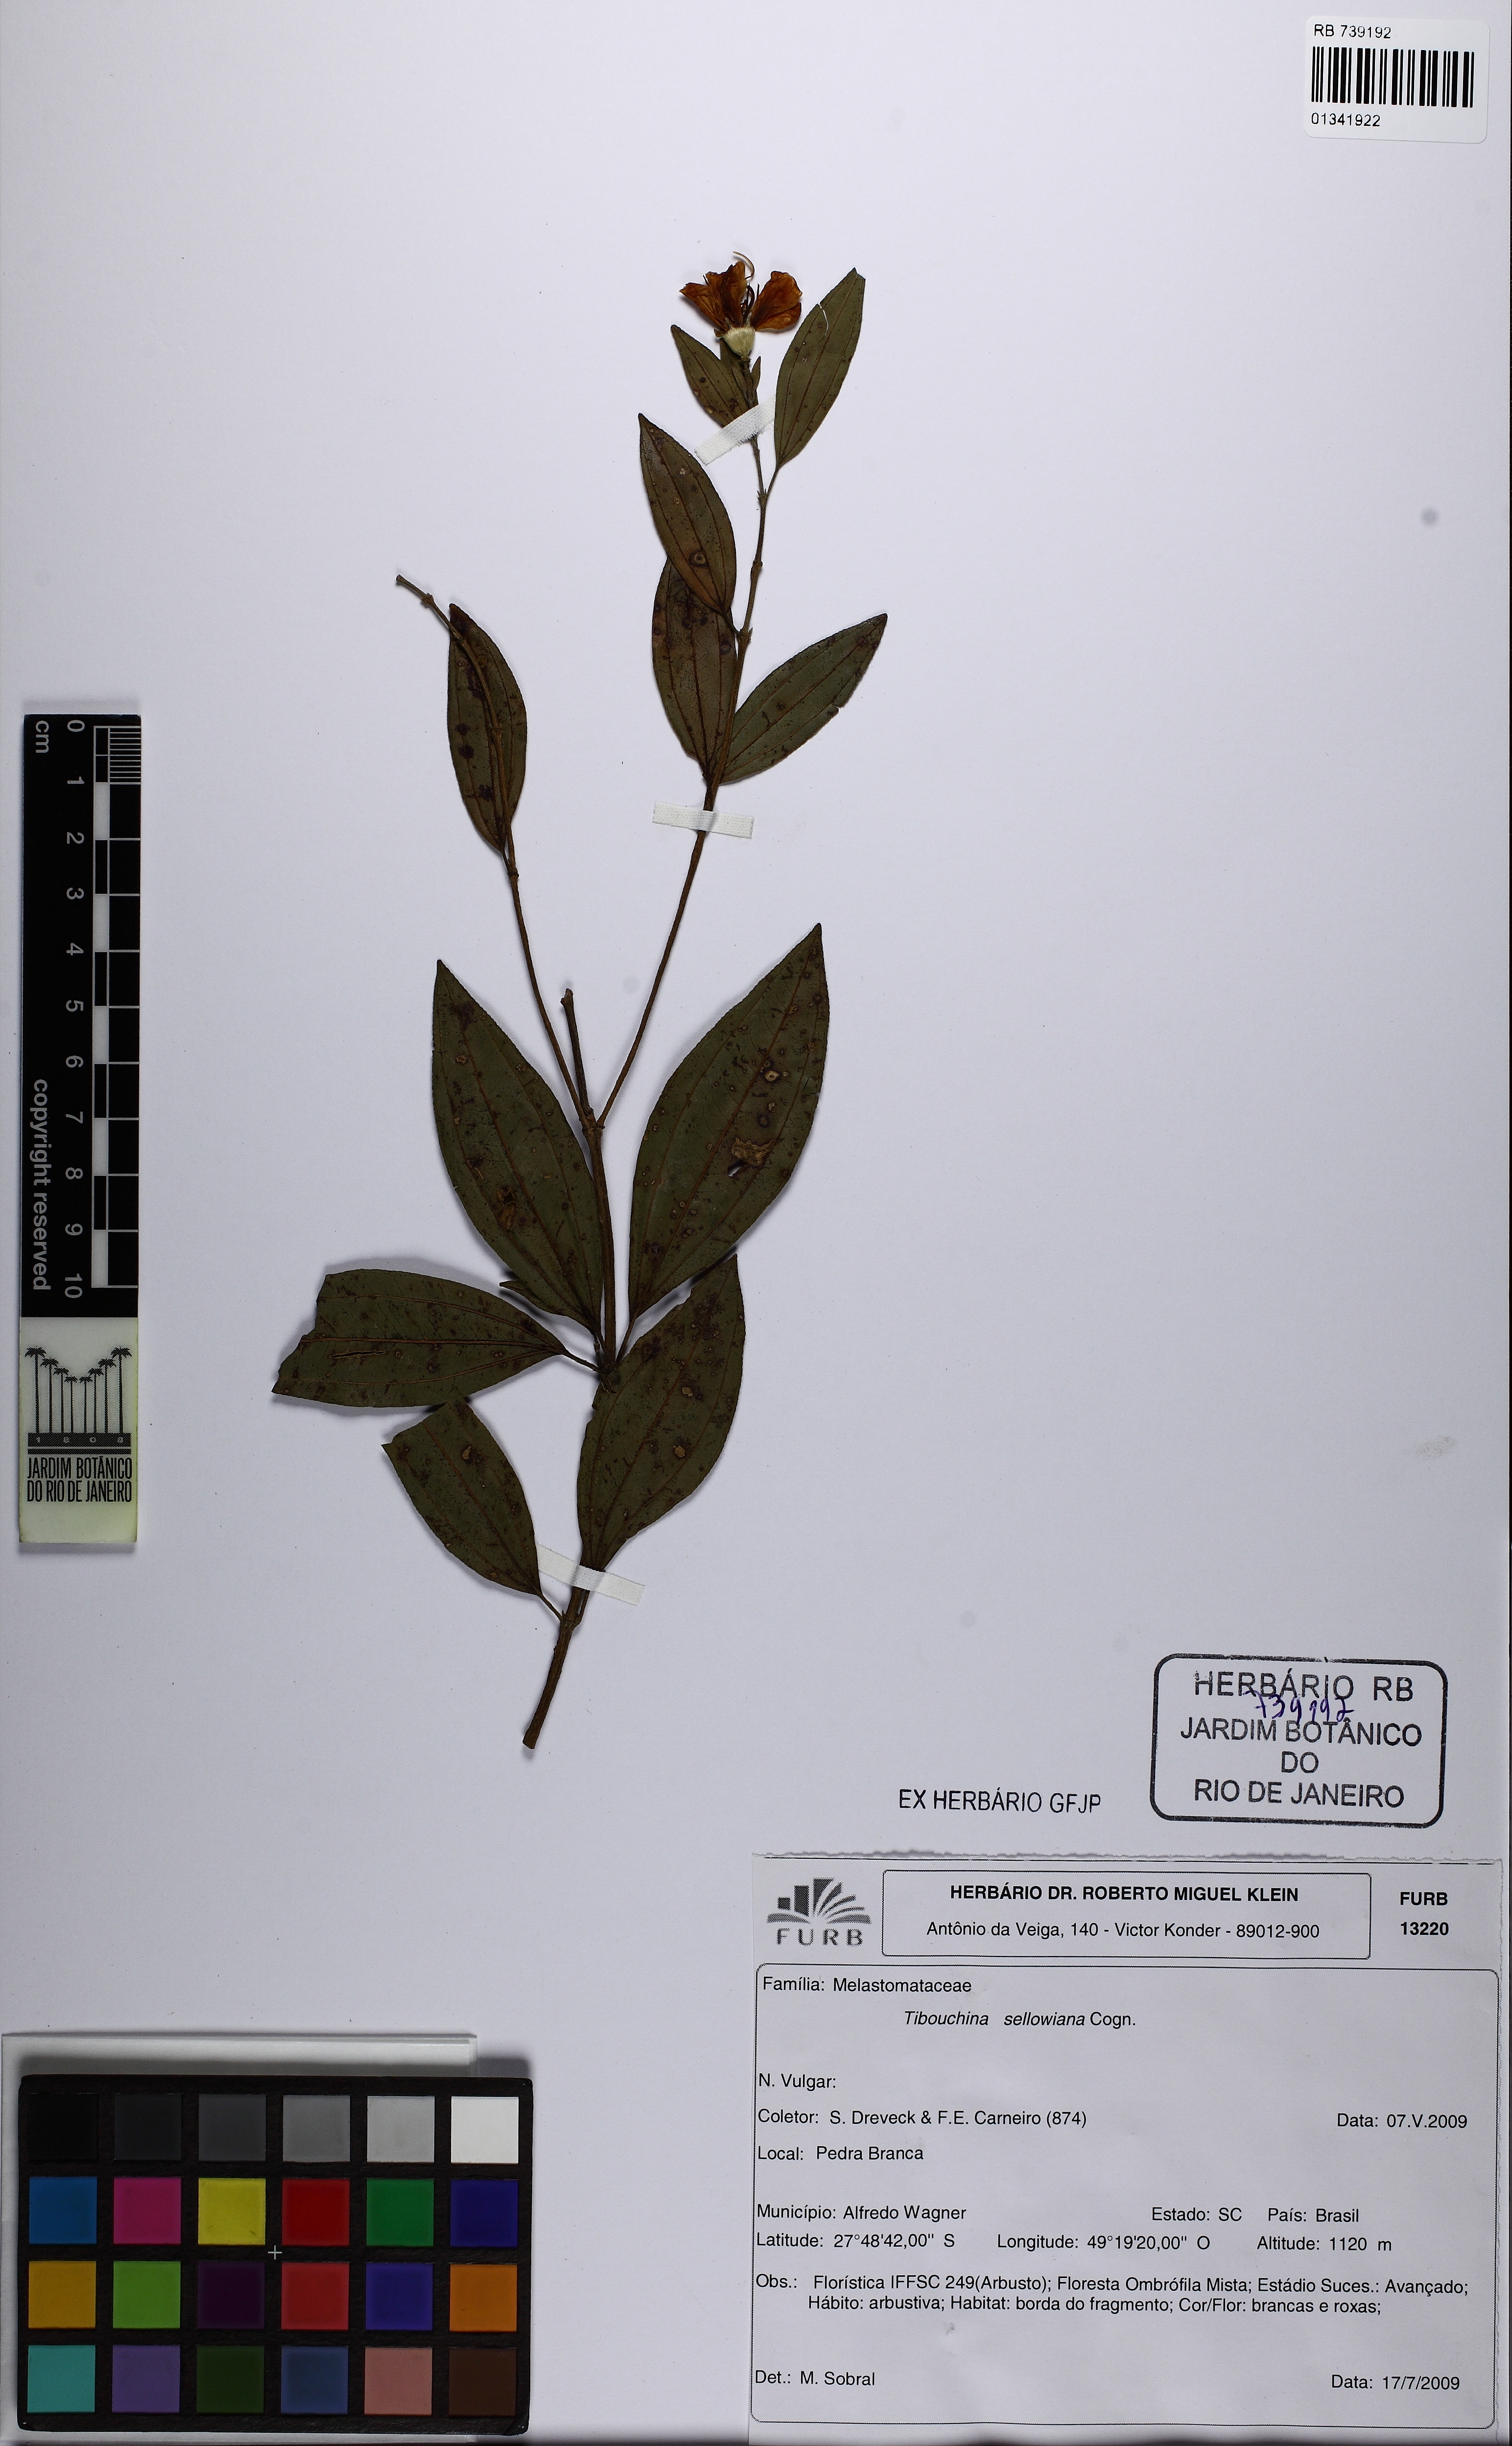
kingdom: Plantae
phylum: Tracheophyta
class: Magnoliopsida
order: Myrtales
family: Melastomataceae
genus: Pleroma
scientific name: Pleroma sellowianum
